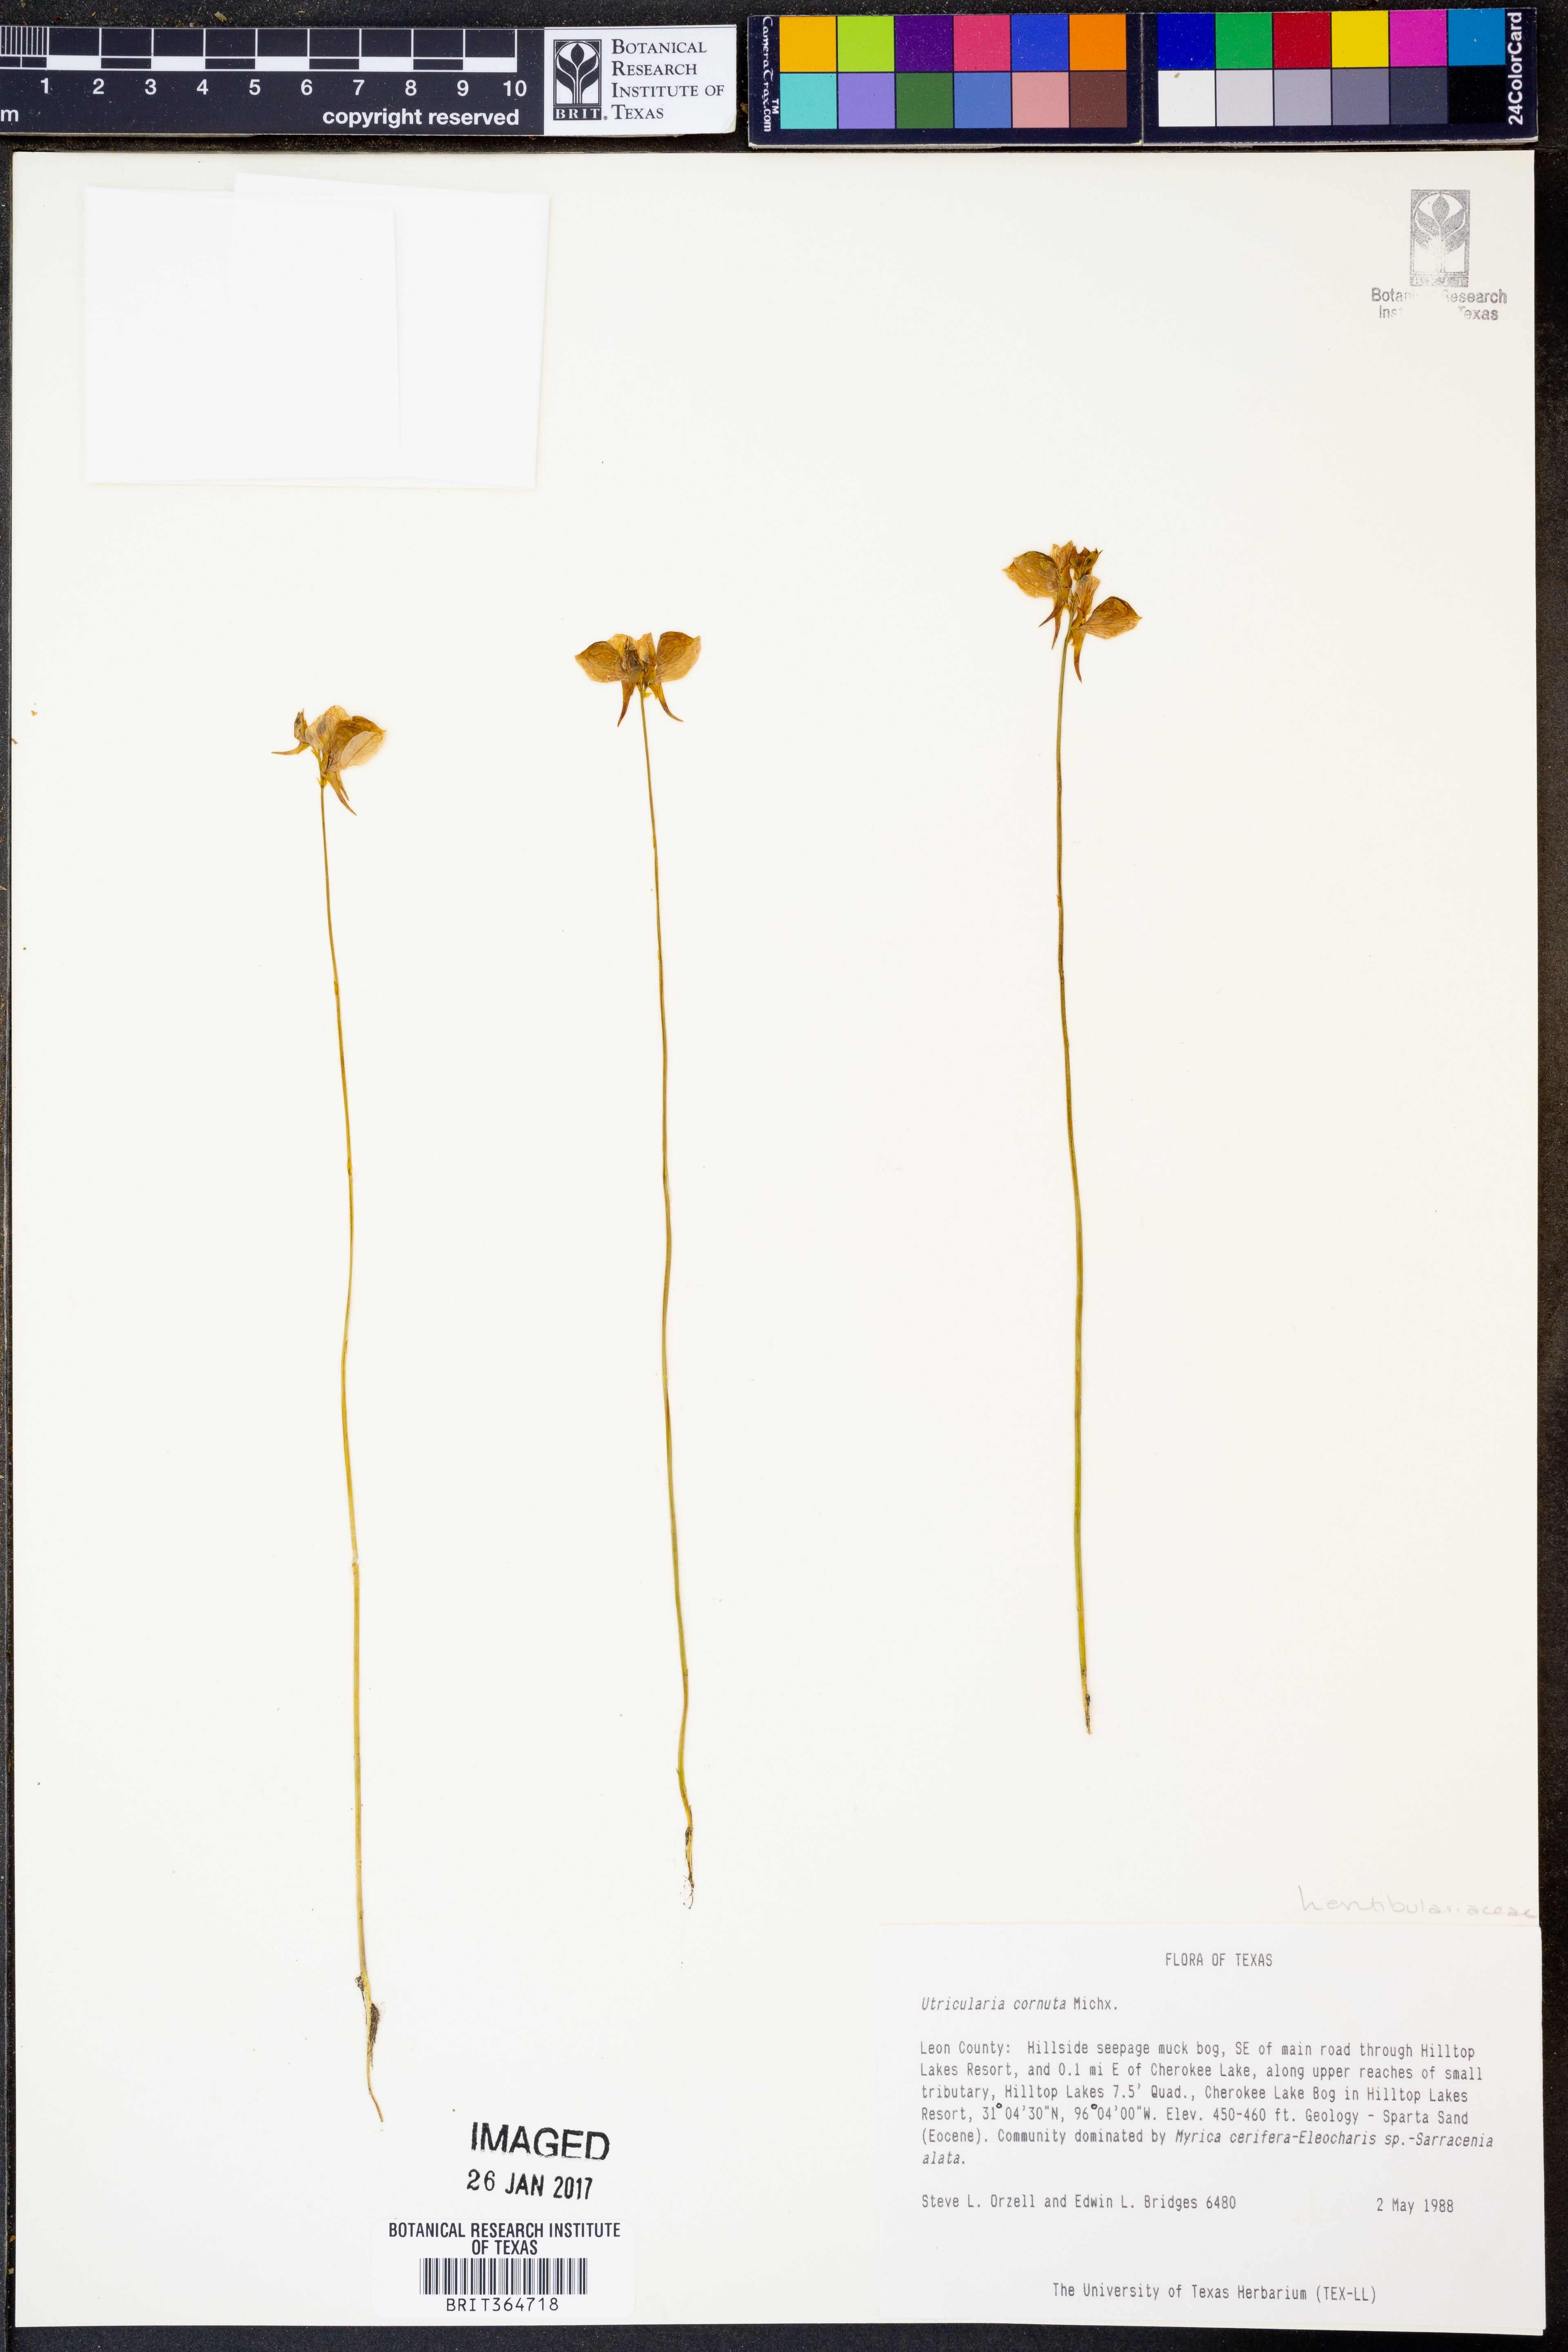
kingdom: Plantae
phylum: Tracheophyta
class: Magnoliopsida
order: Lamiales
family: Lentibulariaceae
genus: Utricularia
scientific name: Utricularia cornuta
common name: Horned bladderwort
